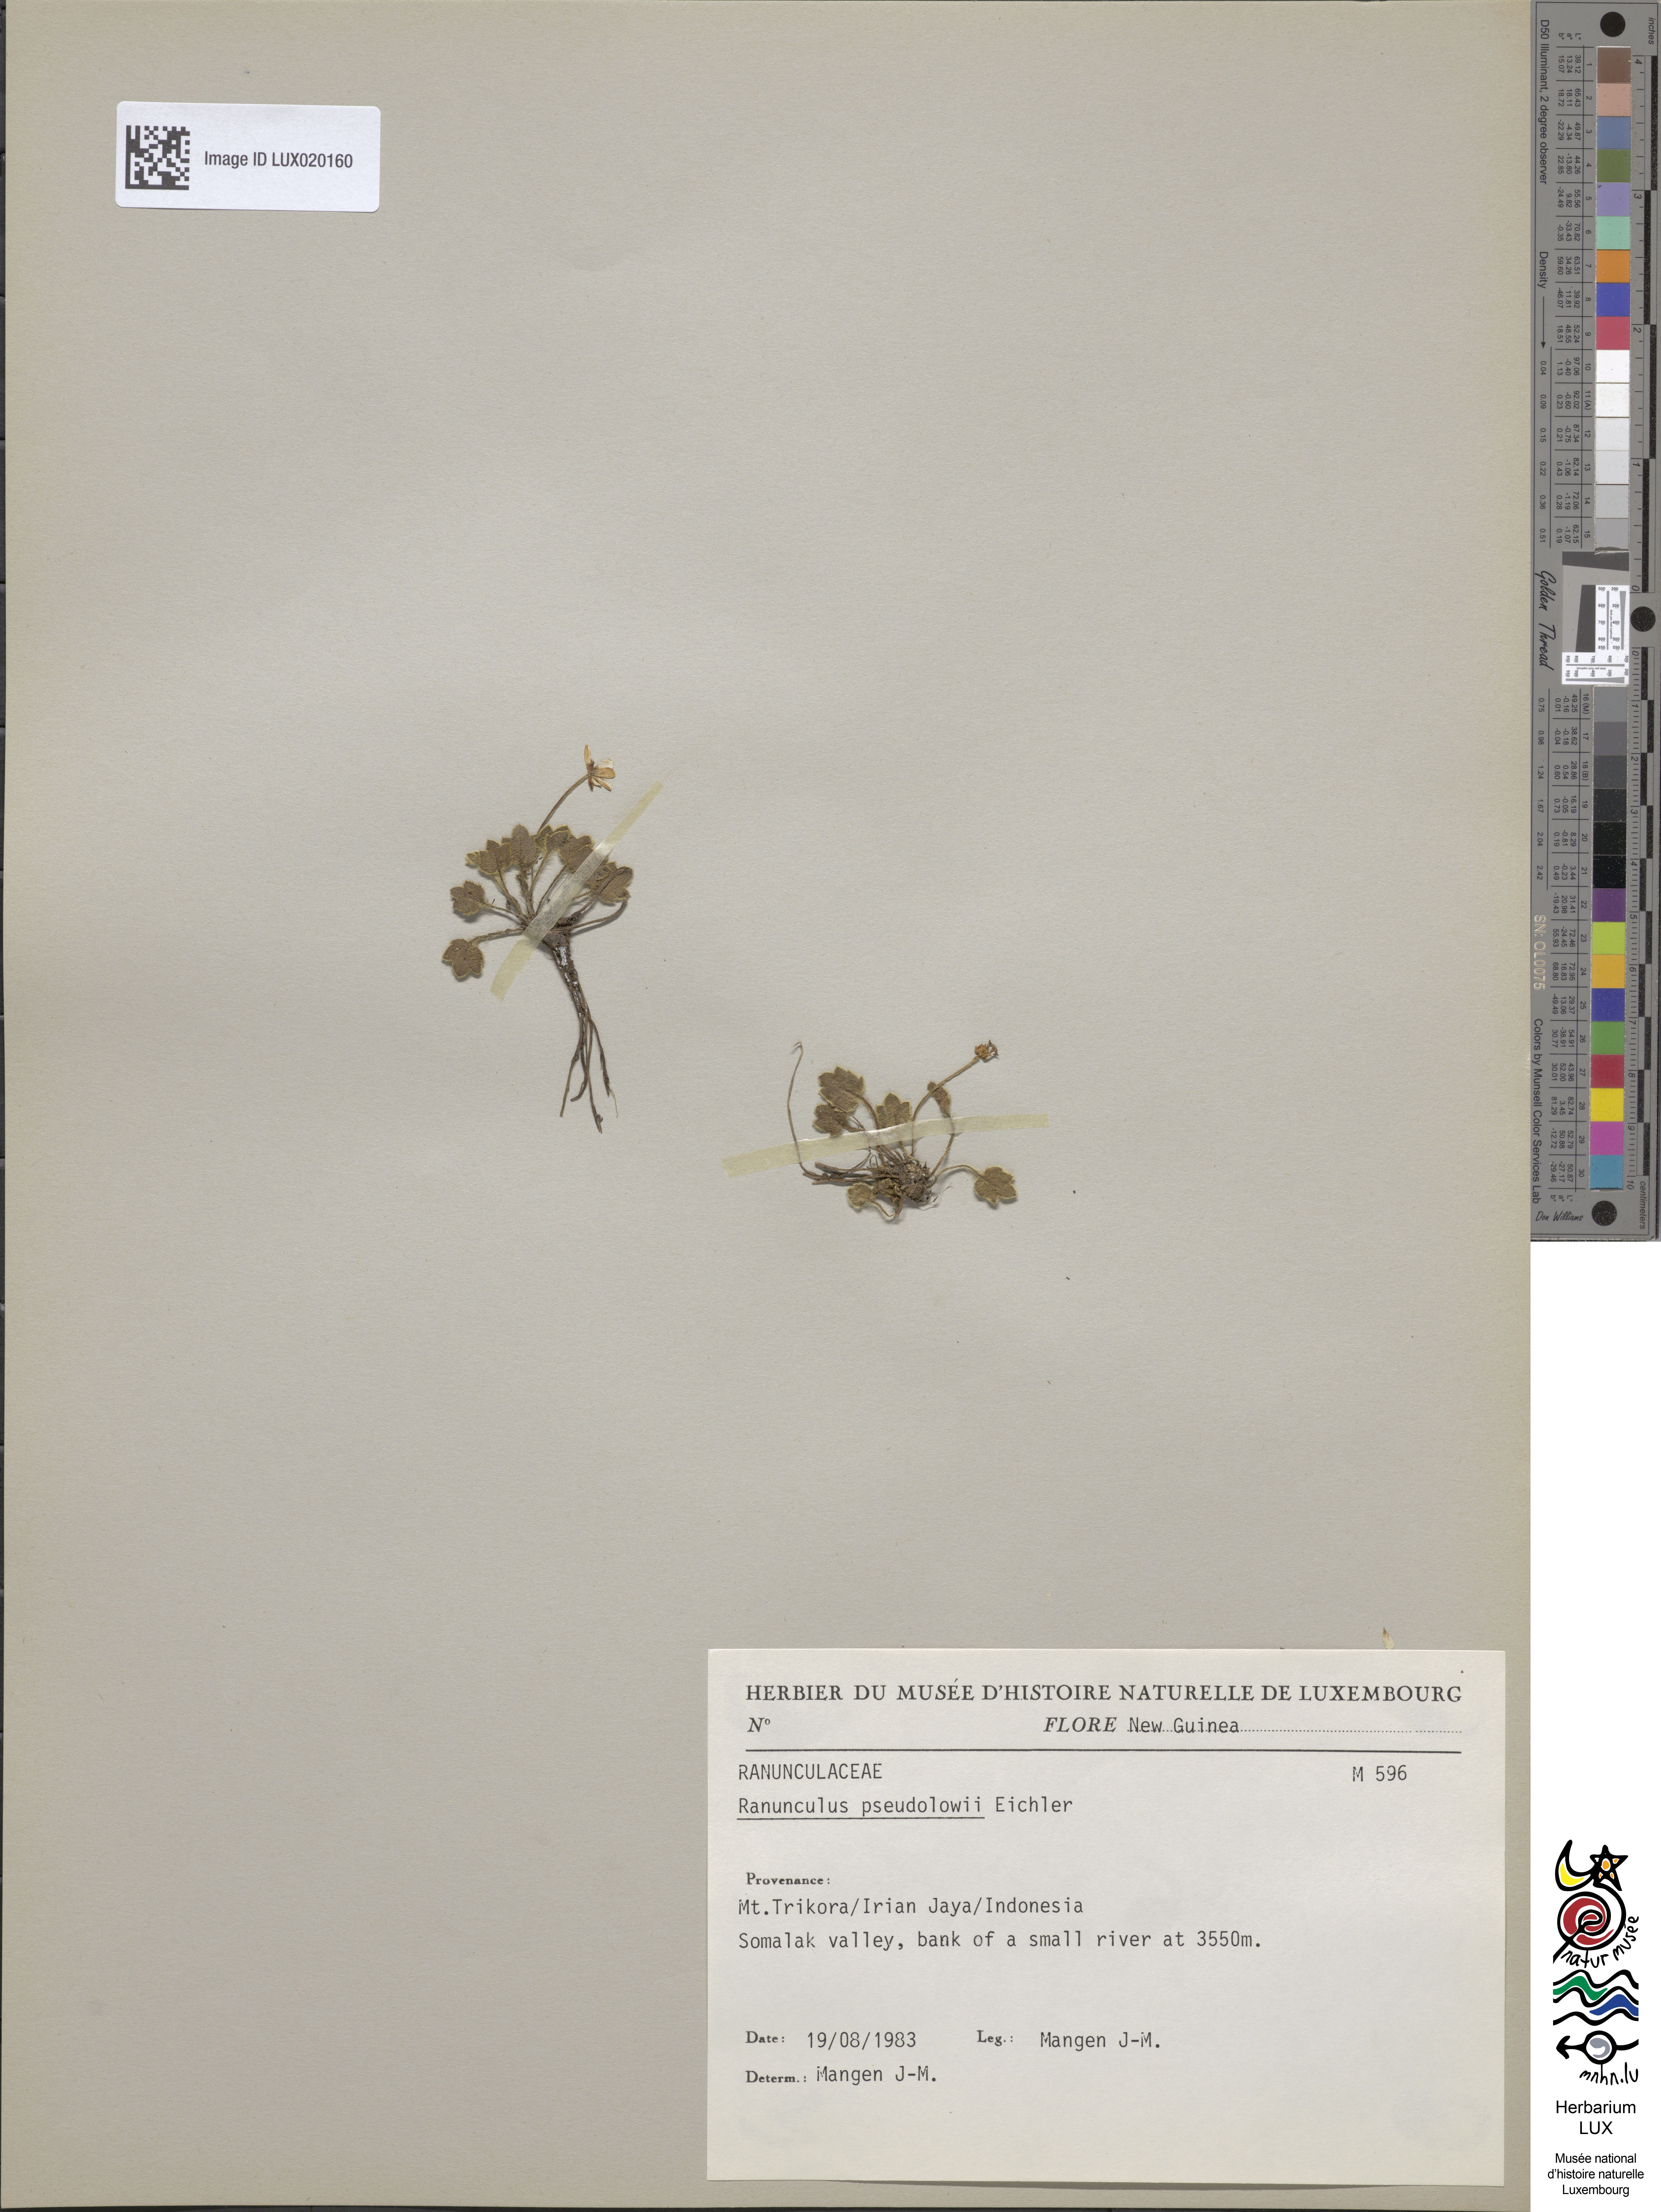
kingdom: Plantae
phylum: Tracheophyta
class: Magnoliopsida
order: Ranunculales
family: Ranunculaceae
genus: Ranunculus
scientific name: Ranunculus pseudolowii
